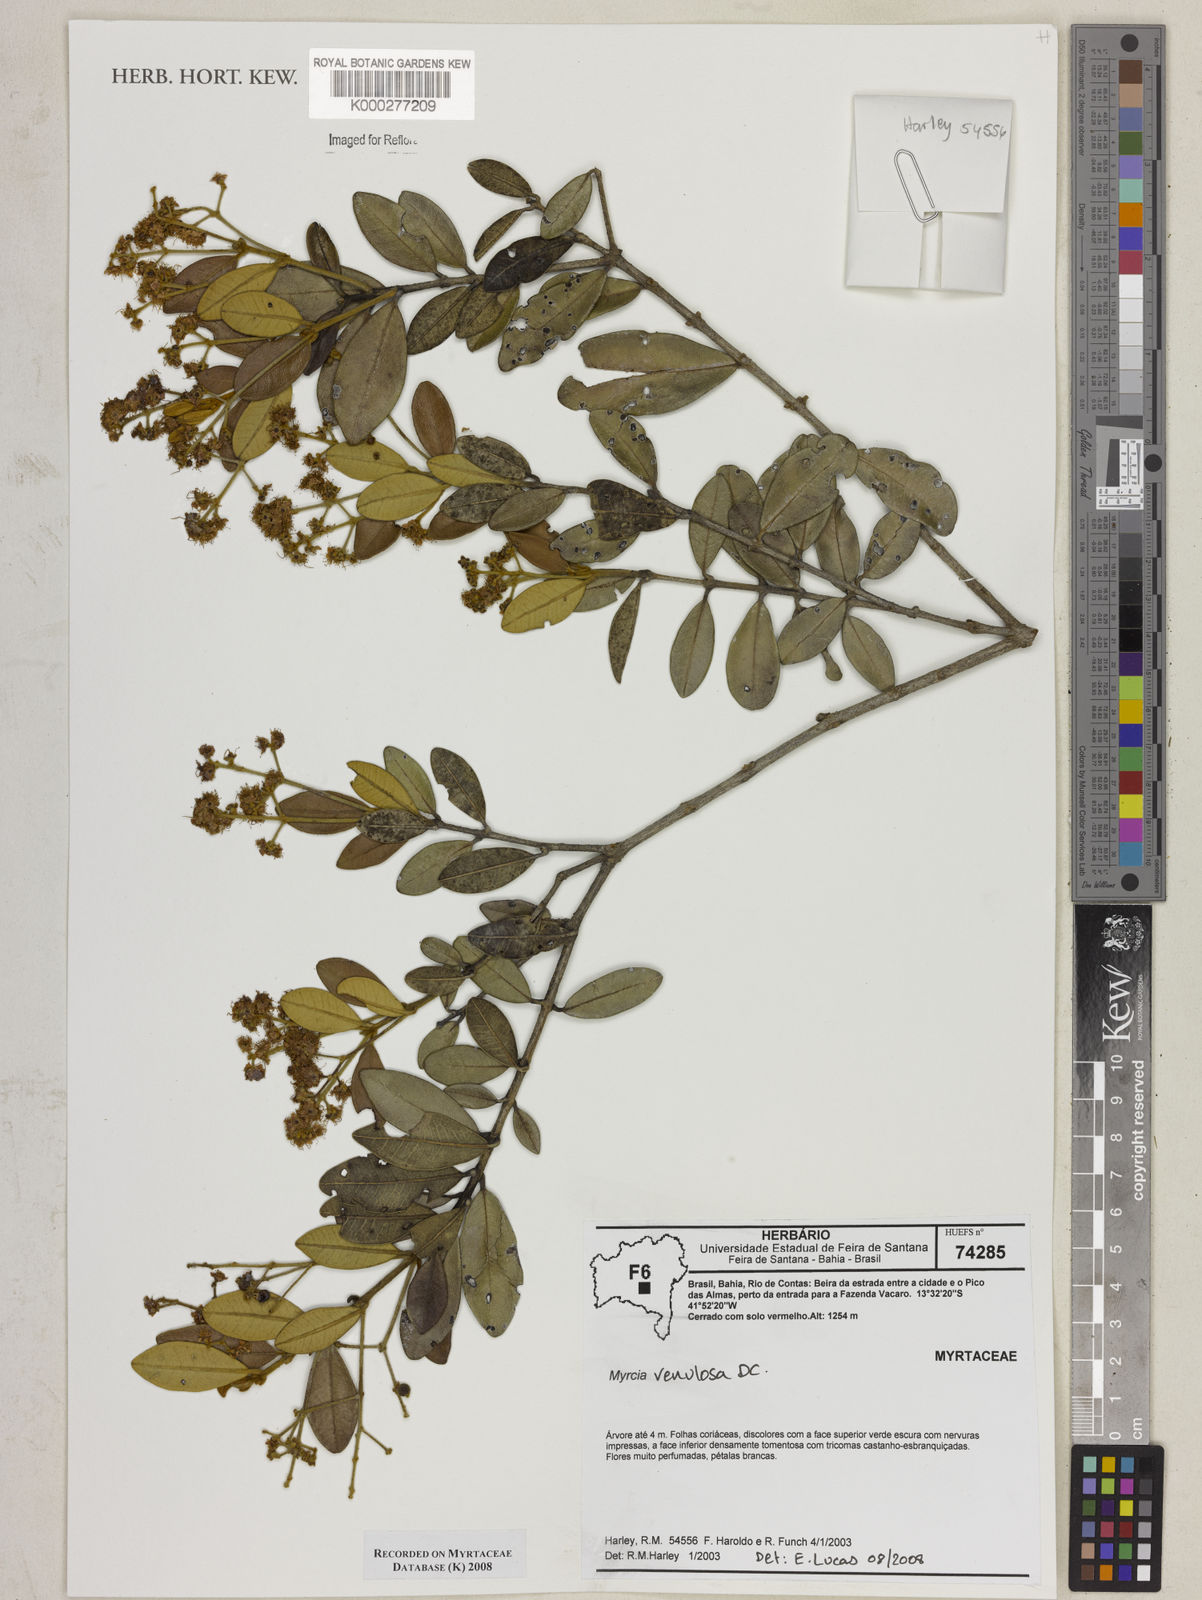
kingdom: Plantae
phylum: Tracheophyta
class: Magnoliopsida
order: Myrtales
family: Myrtaceae
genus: Myrcia
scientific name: Myrcia venulosa
